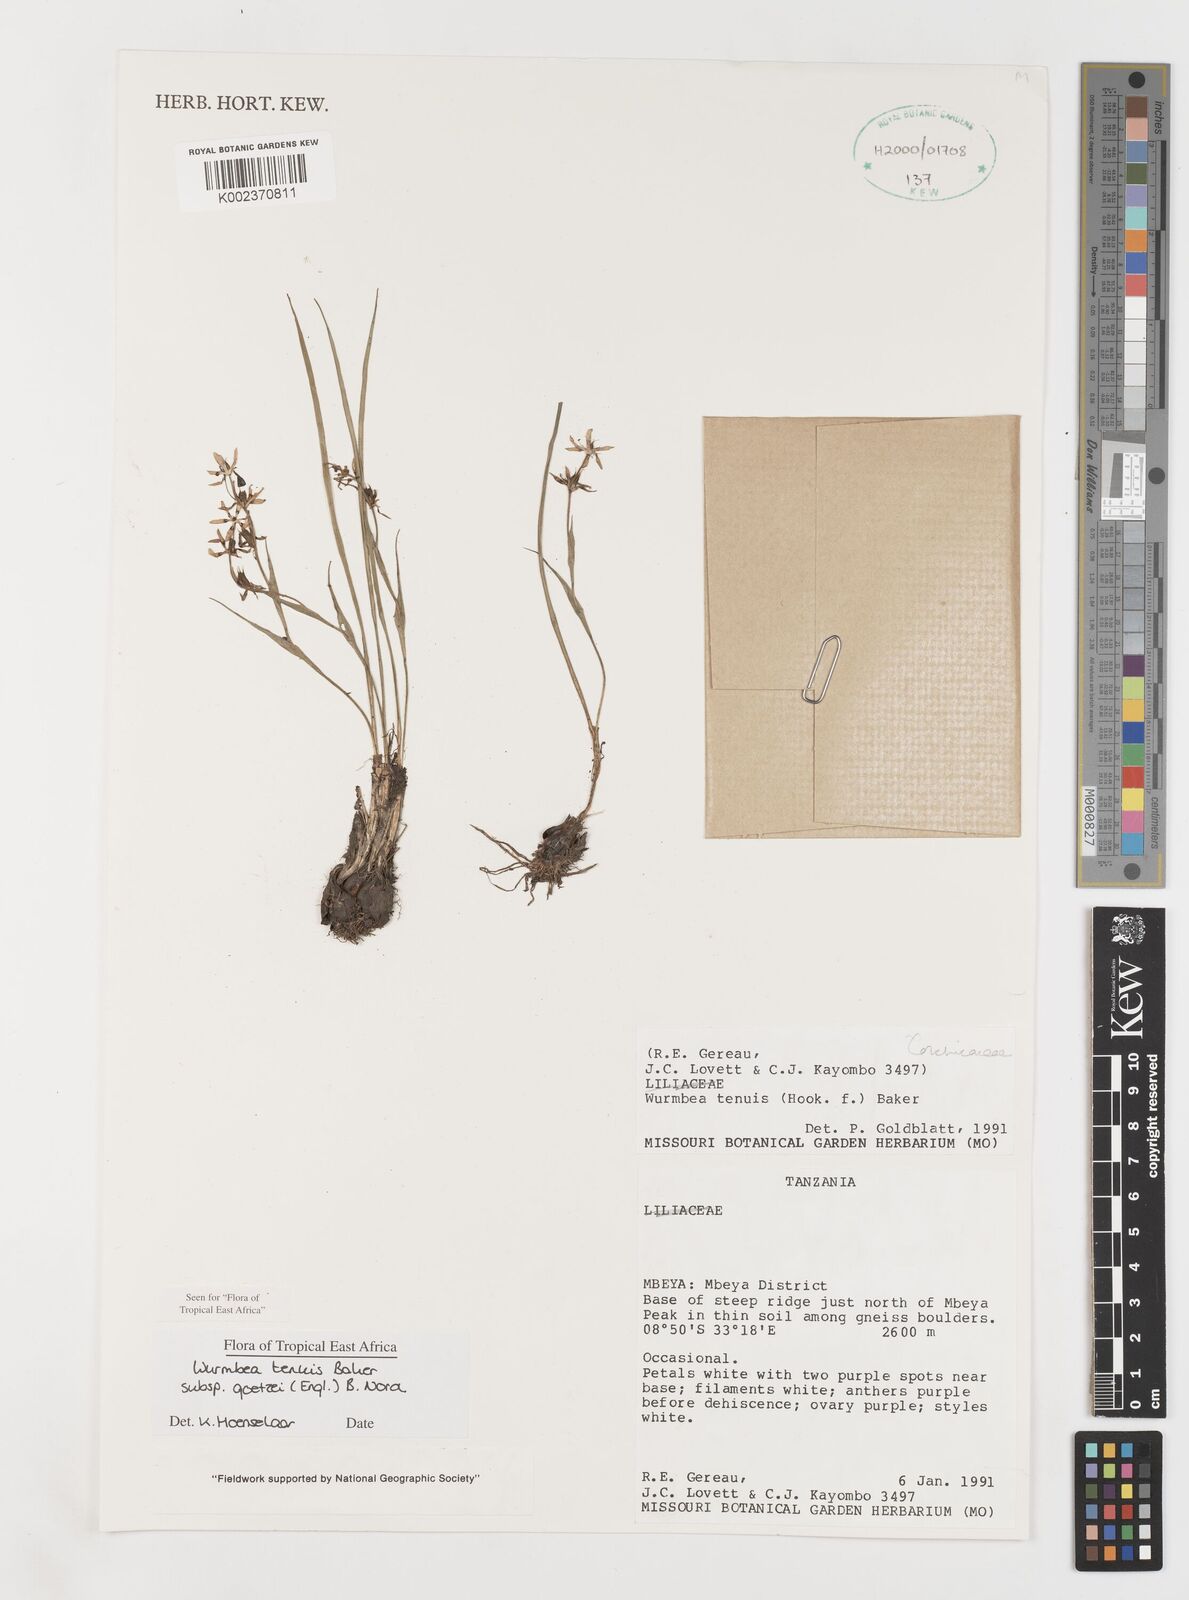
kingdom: Plantae
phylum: Tracheophyta
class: Liliopsida
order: Liliales
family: Colchicaceae
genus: Wurmbea
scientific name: Wurmbea tenuis
